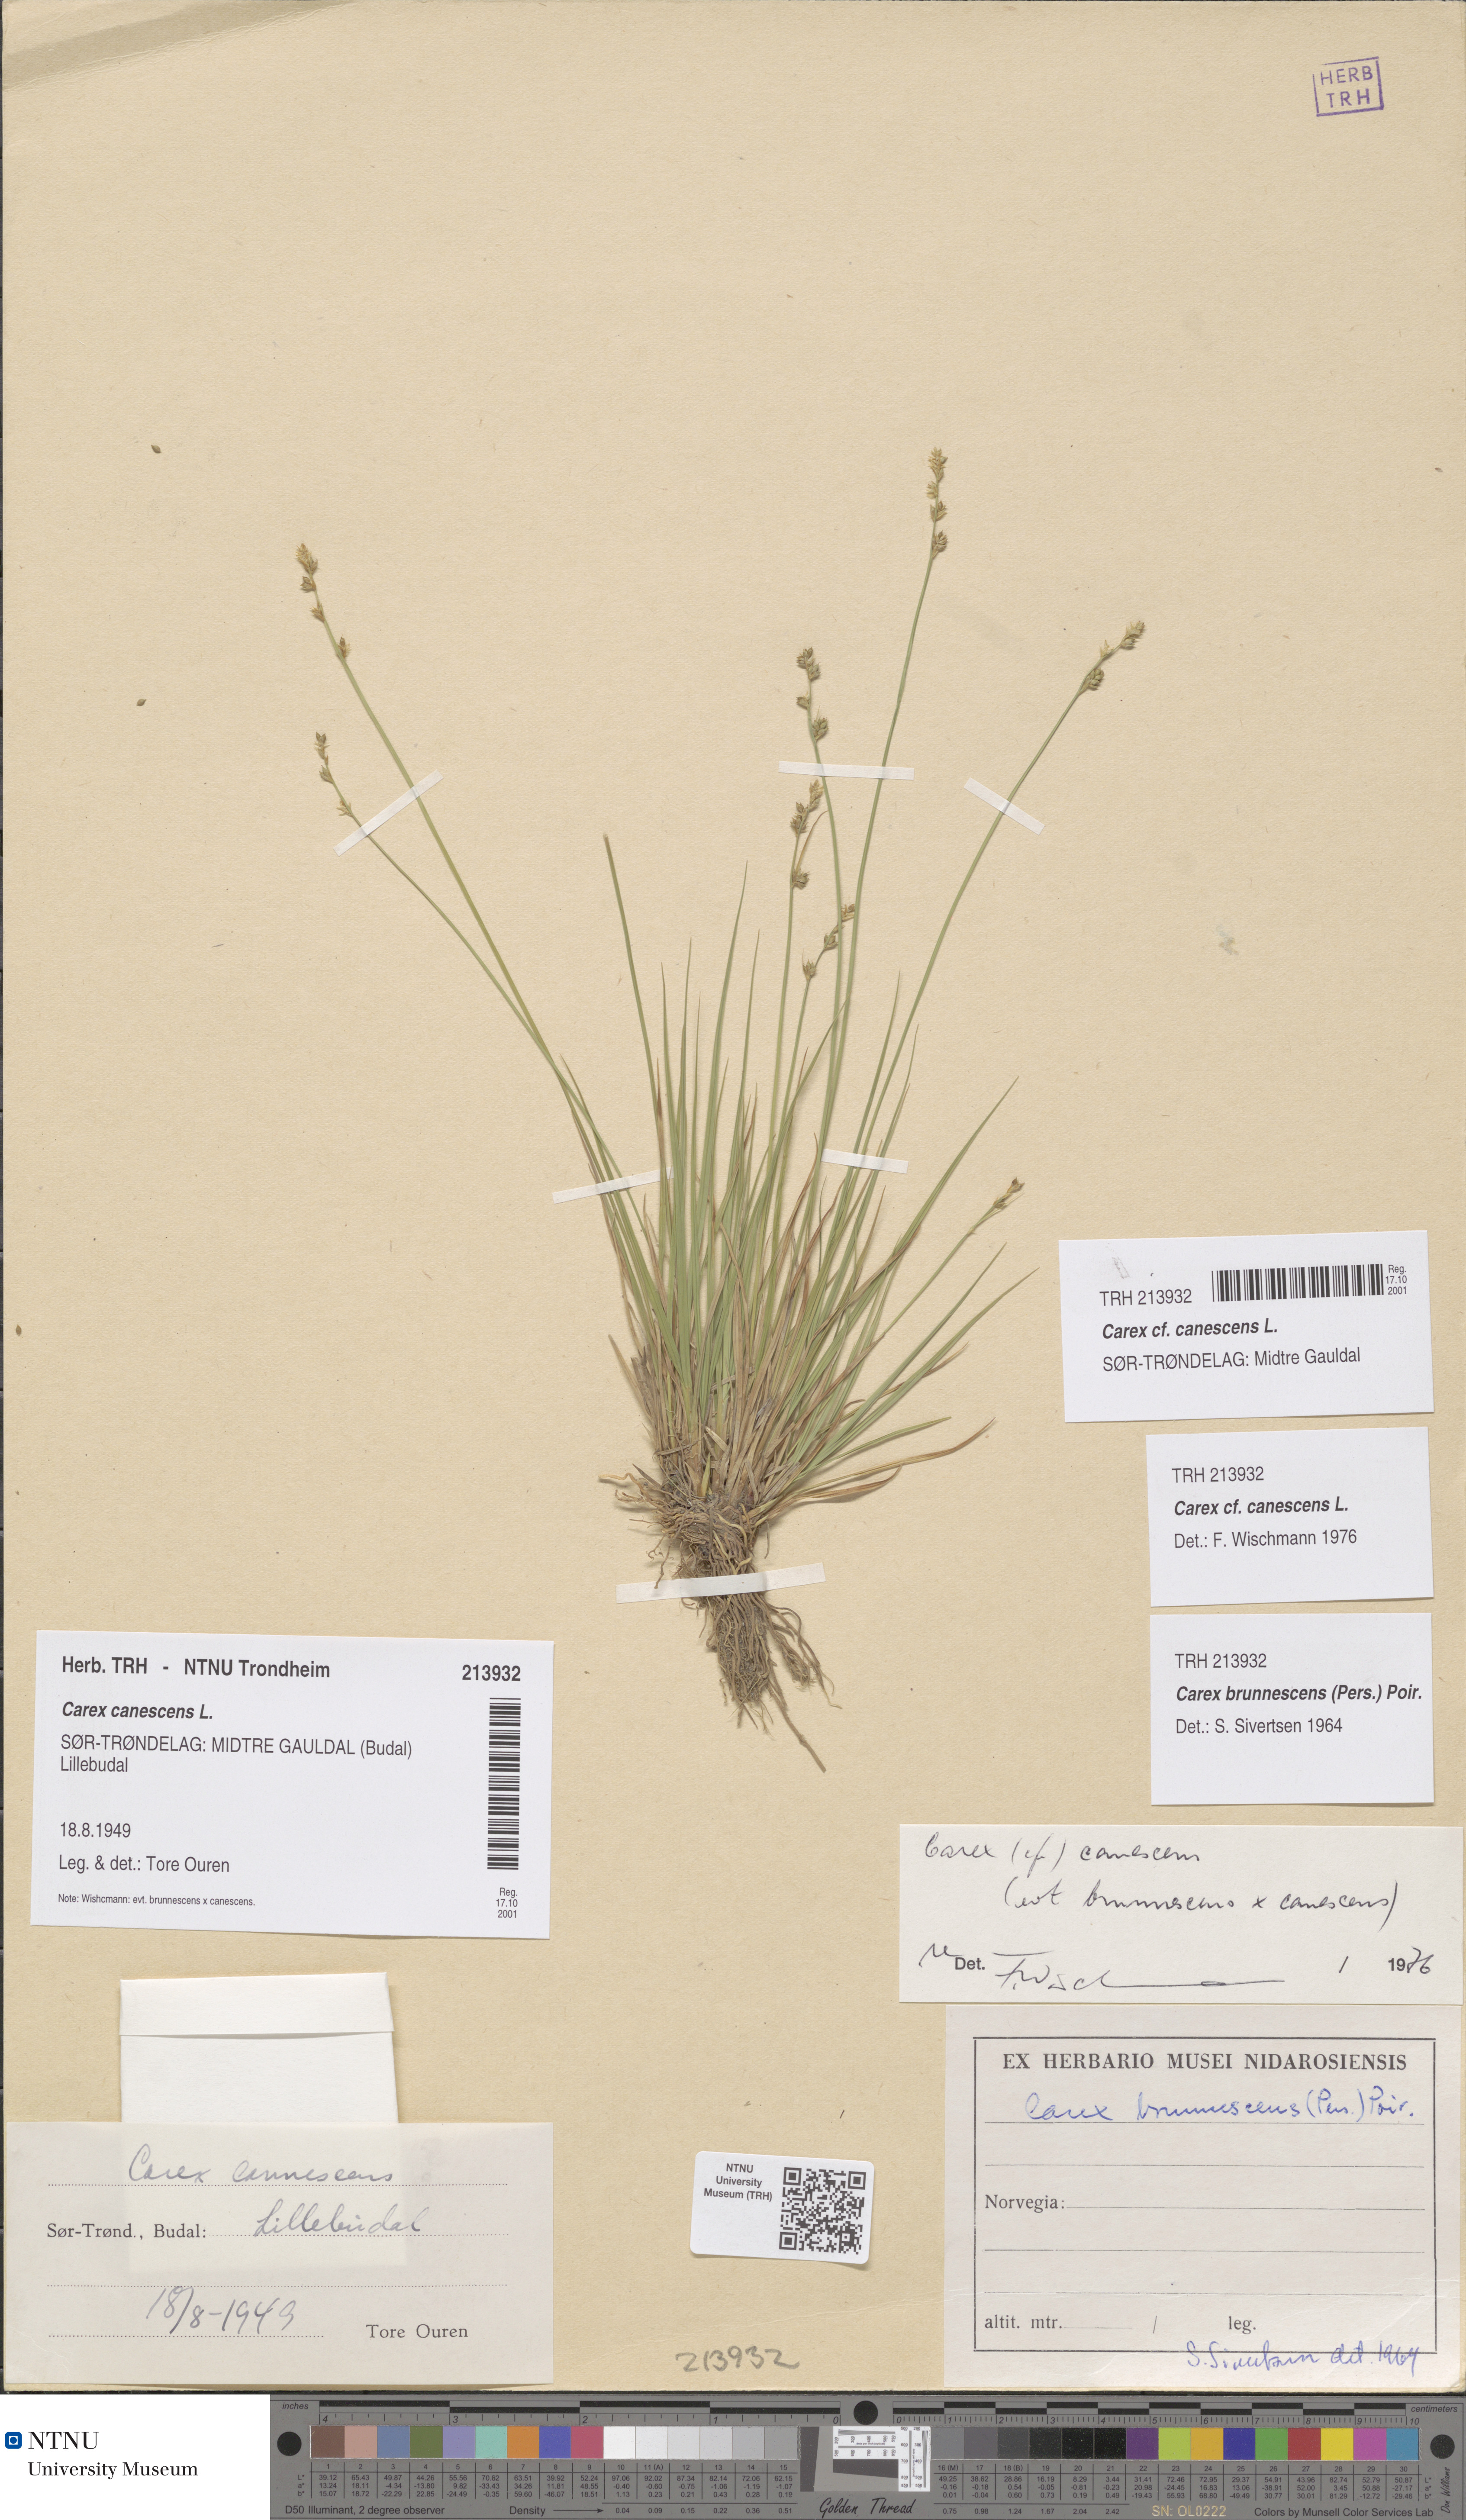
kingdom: Plantae
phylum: Tracheophyta
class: Liliopsida
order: Poales
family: Cyperaceae
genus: Carex
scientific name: Carex canescens
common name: White sedge
